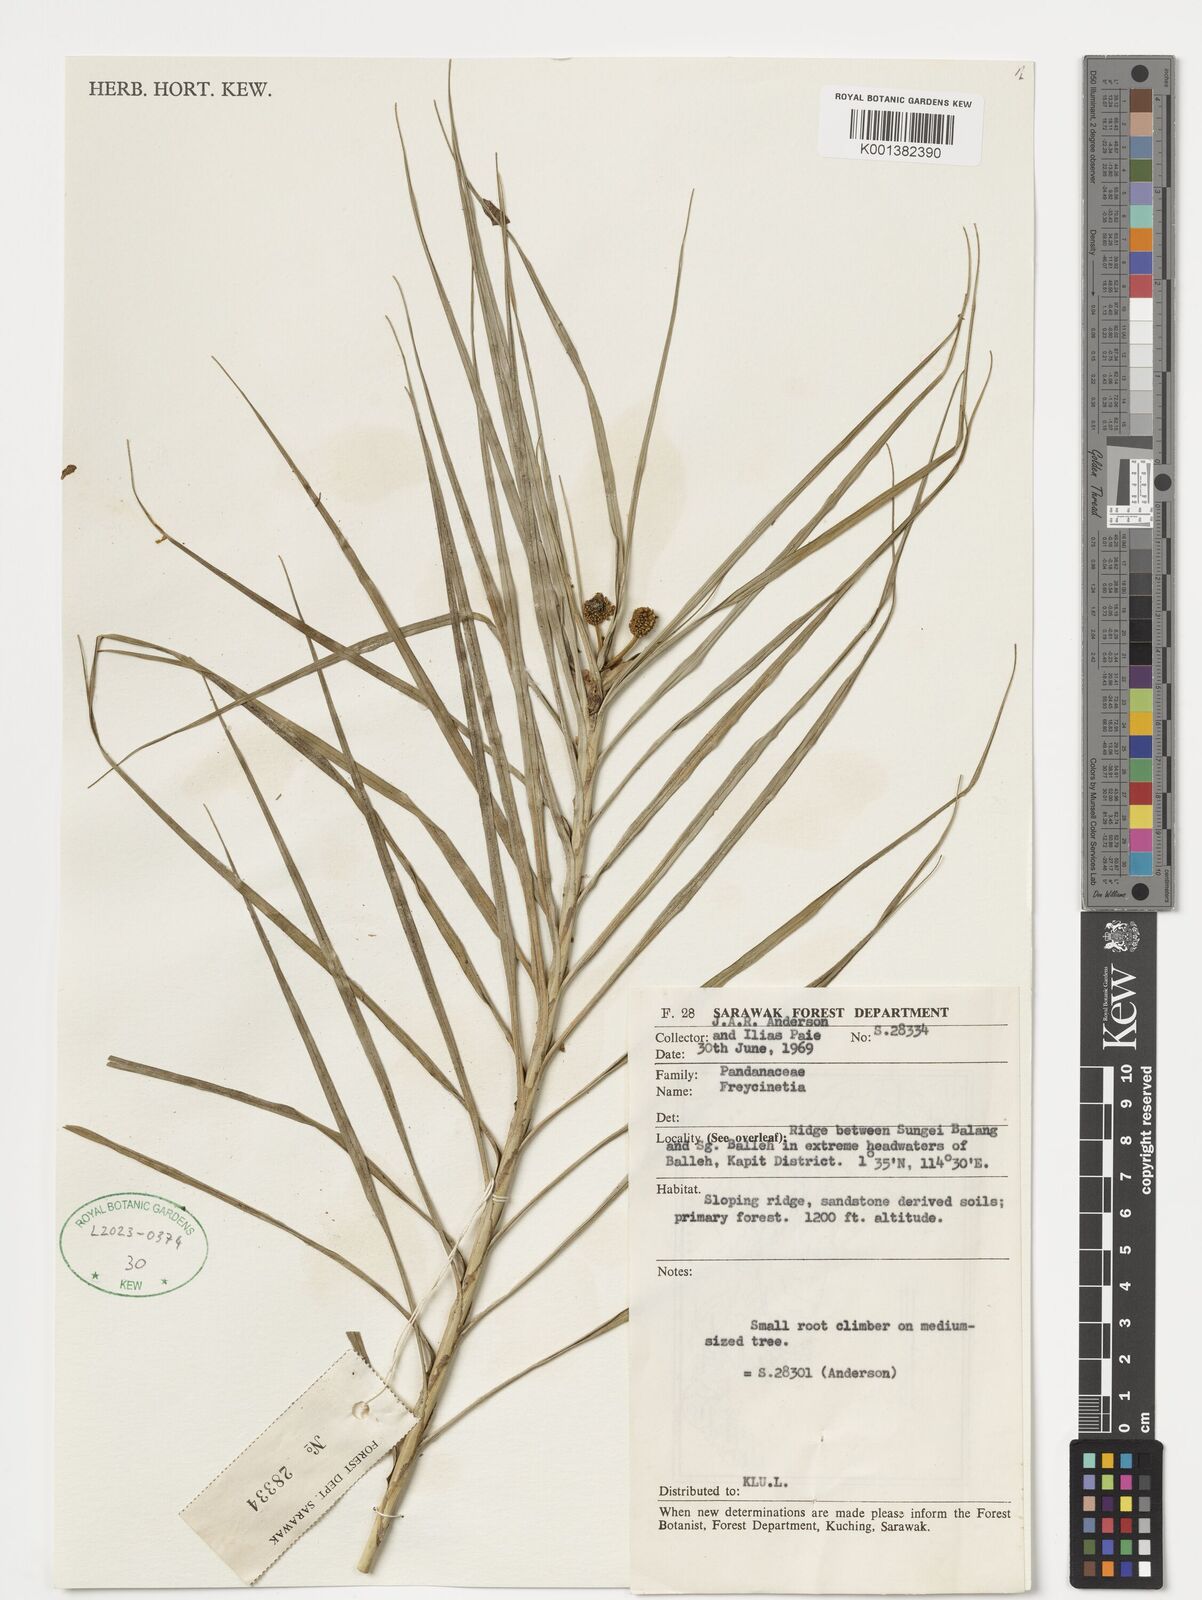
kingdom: Plantae
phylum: Tracheophyta
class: Liliopsida
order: Pandanales
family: Pandanaceae
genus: Freycinetia
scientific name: Freycinetia
